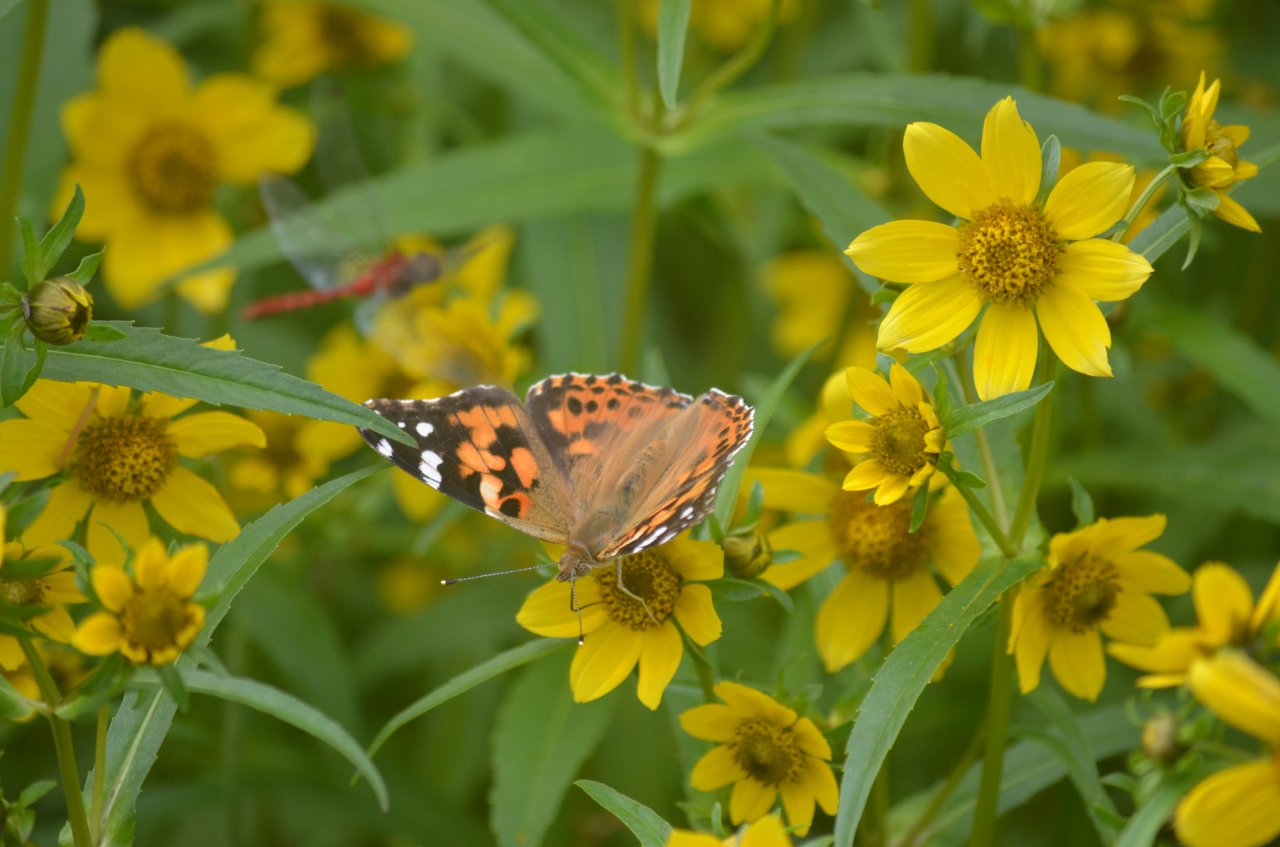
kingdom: Animalia
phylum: Arthropoda
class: Insecta
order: Lepidoptera
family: Nymphalidae
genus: Vanessa
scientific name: Vanessa cardui
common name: Painted Lady
